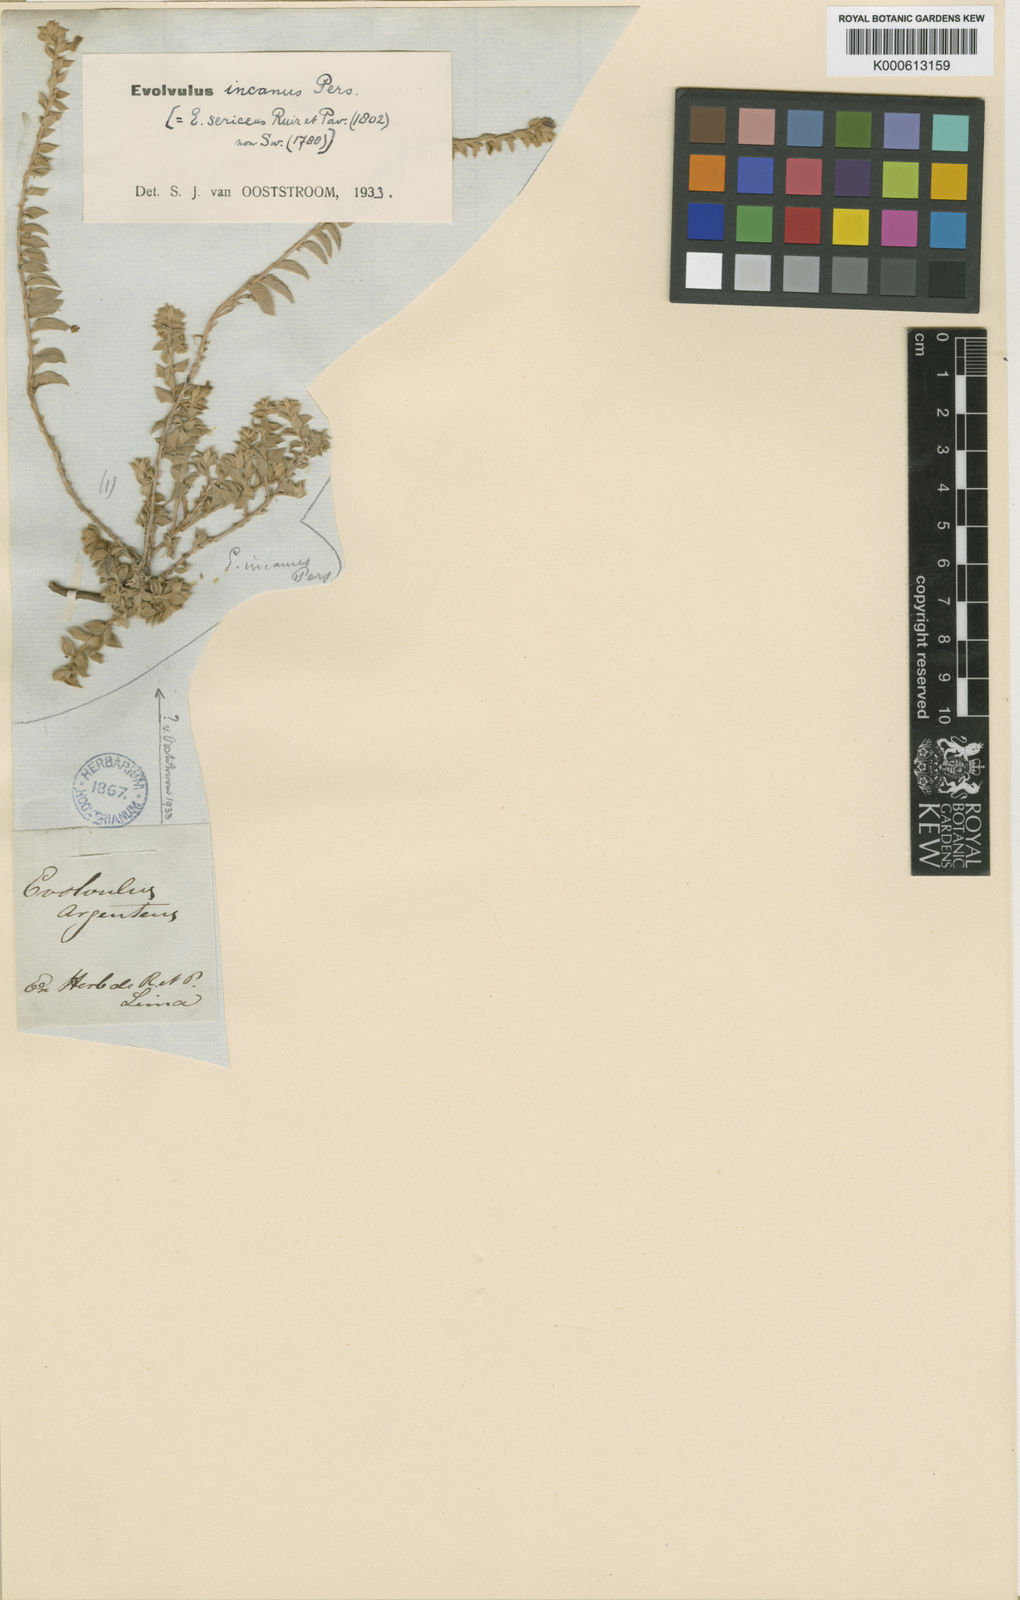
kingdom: Plantae
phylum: Tracheophyta
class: Magnoliopsida
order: Solanales
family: Convolvulaceae
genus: Evolvulus
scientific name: Evolvulus incanus
